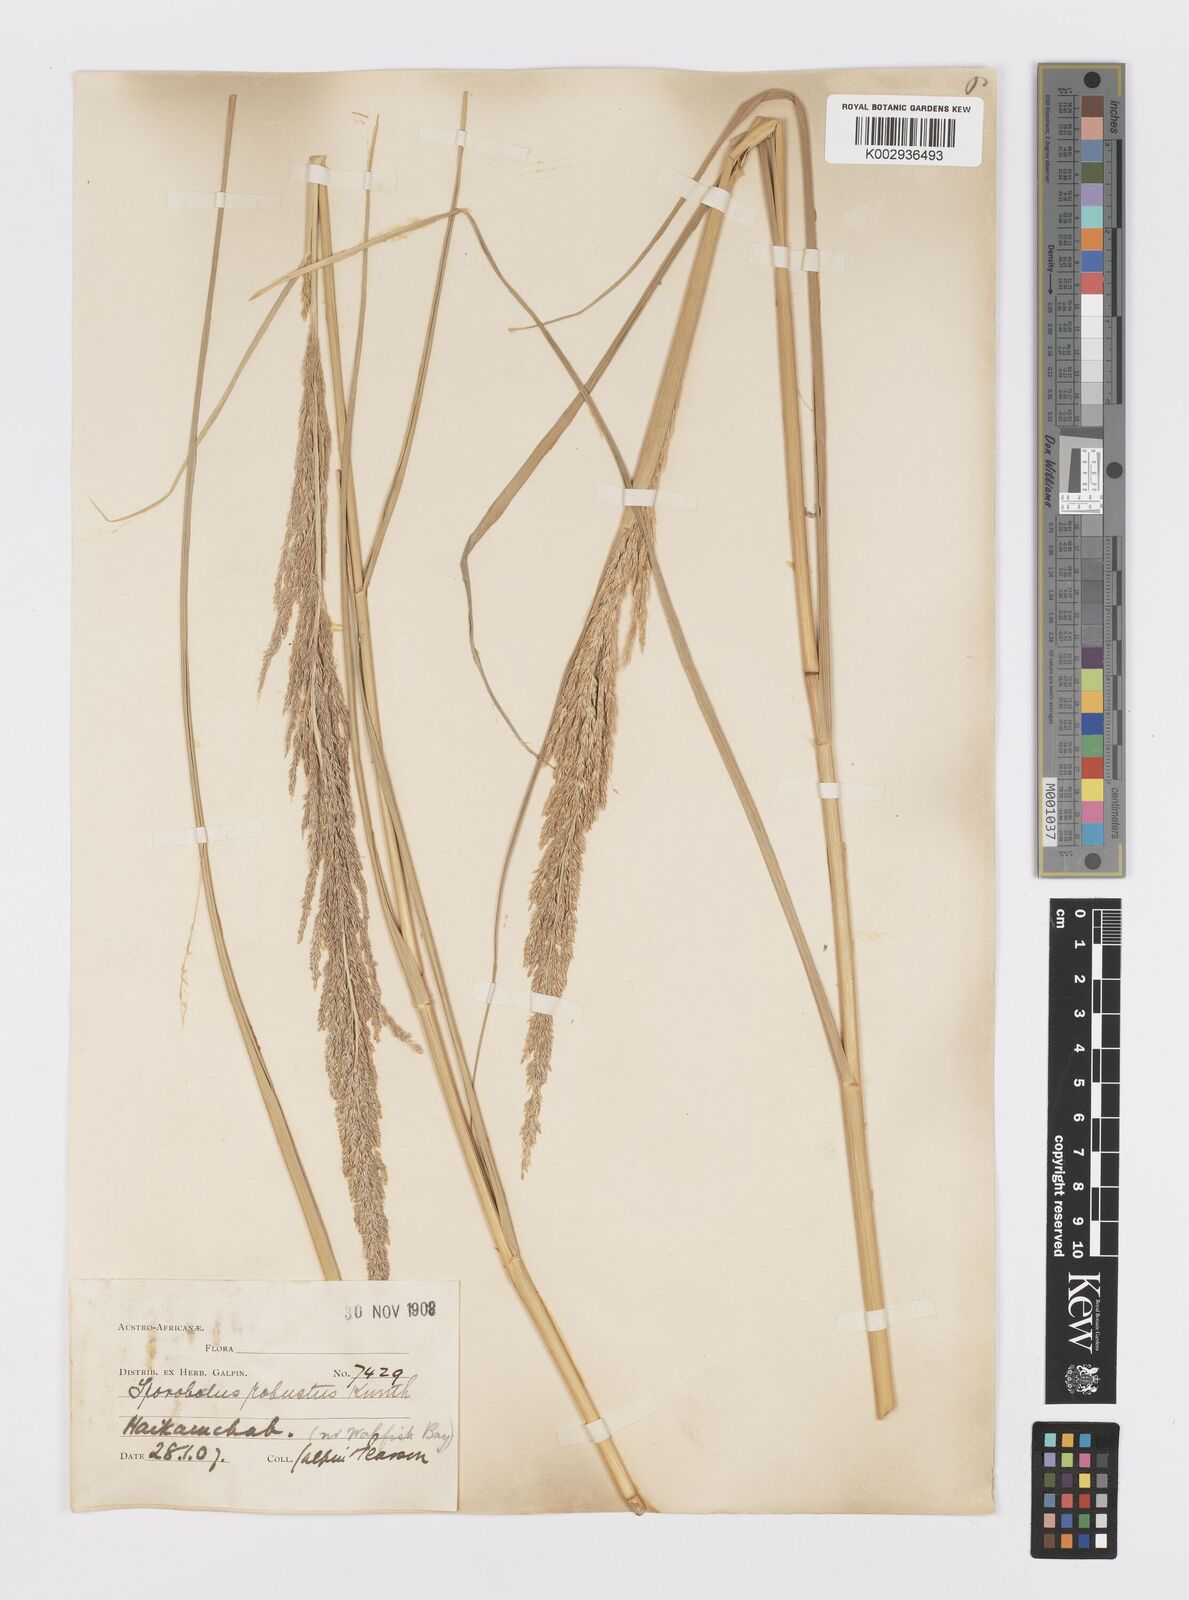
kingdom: Plantae
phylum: Tracheophyta
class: Liliopsida
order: Poales
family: Poaceae
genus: Sporobolus
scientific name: Sporobolus consimilis
